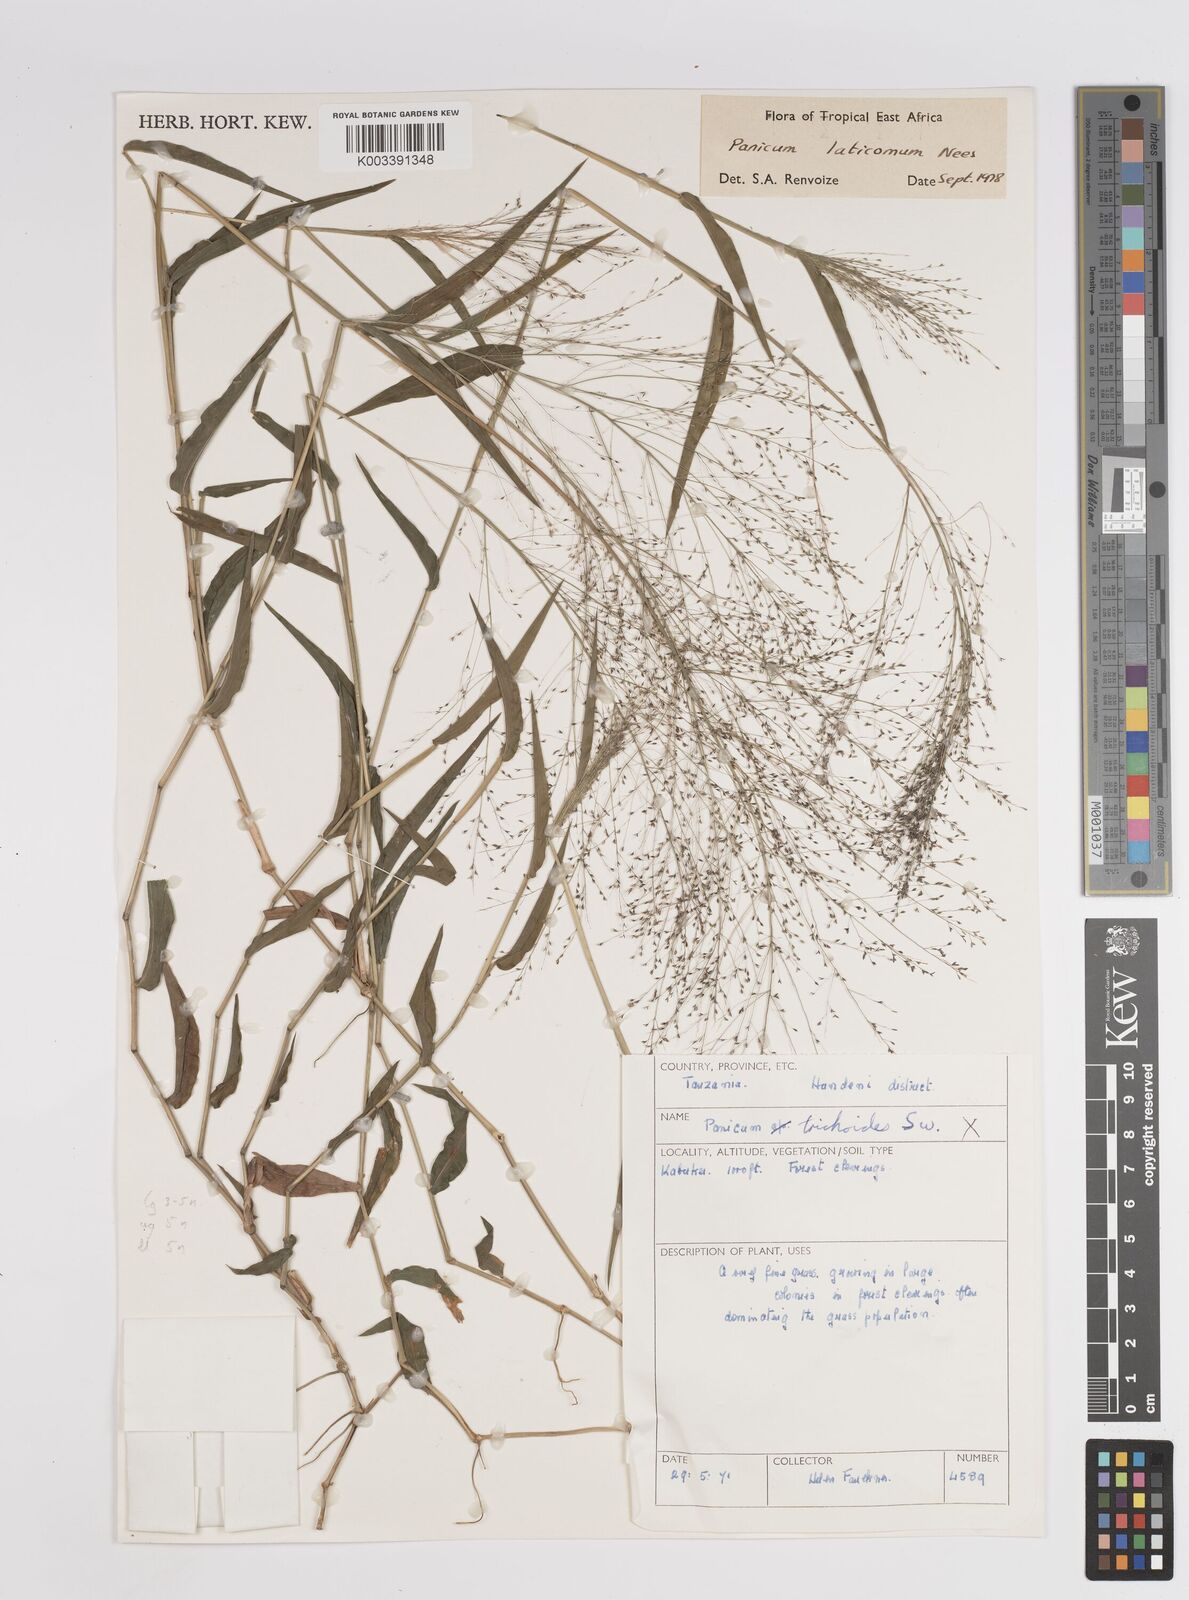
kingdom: Plantae
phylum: Tracheophyta
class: Liliopsida
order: Poales
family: Poaceae
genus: Panicum
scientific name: Panicum laticomum
